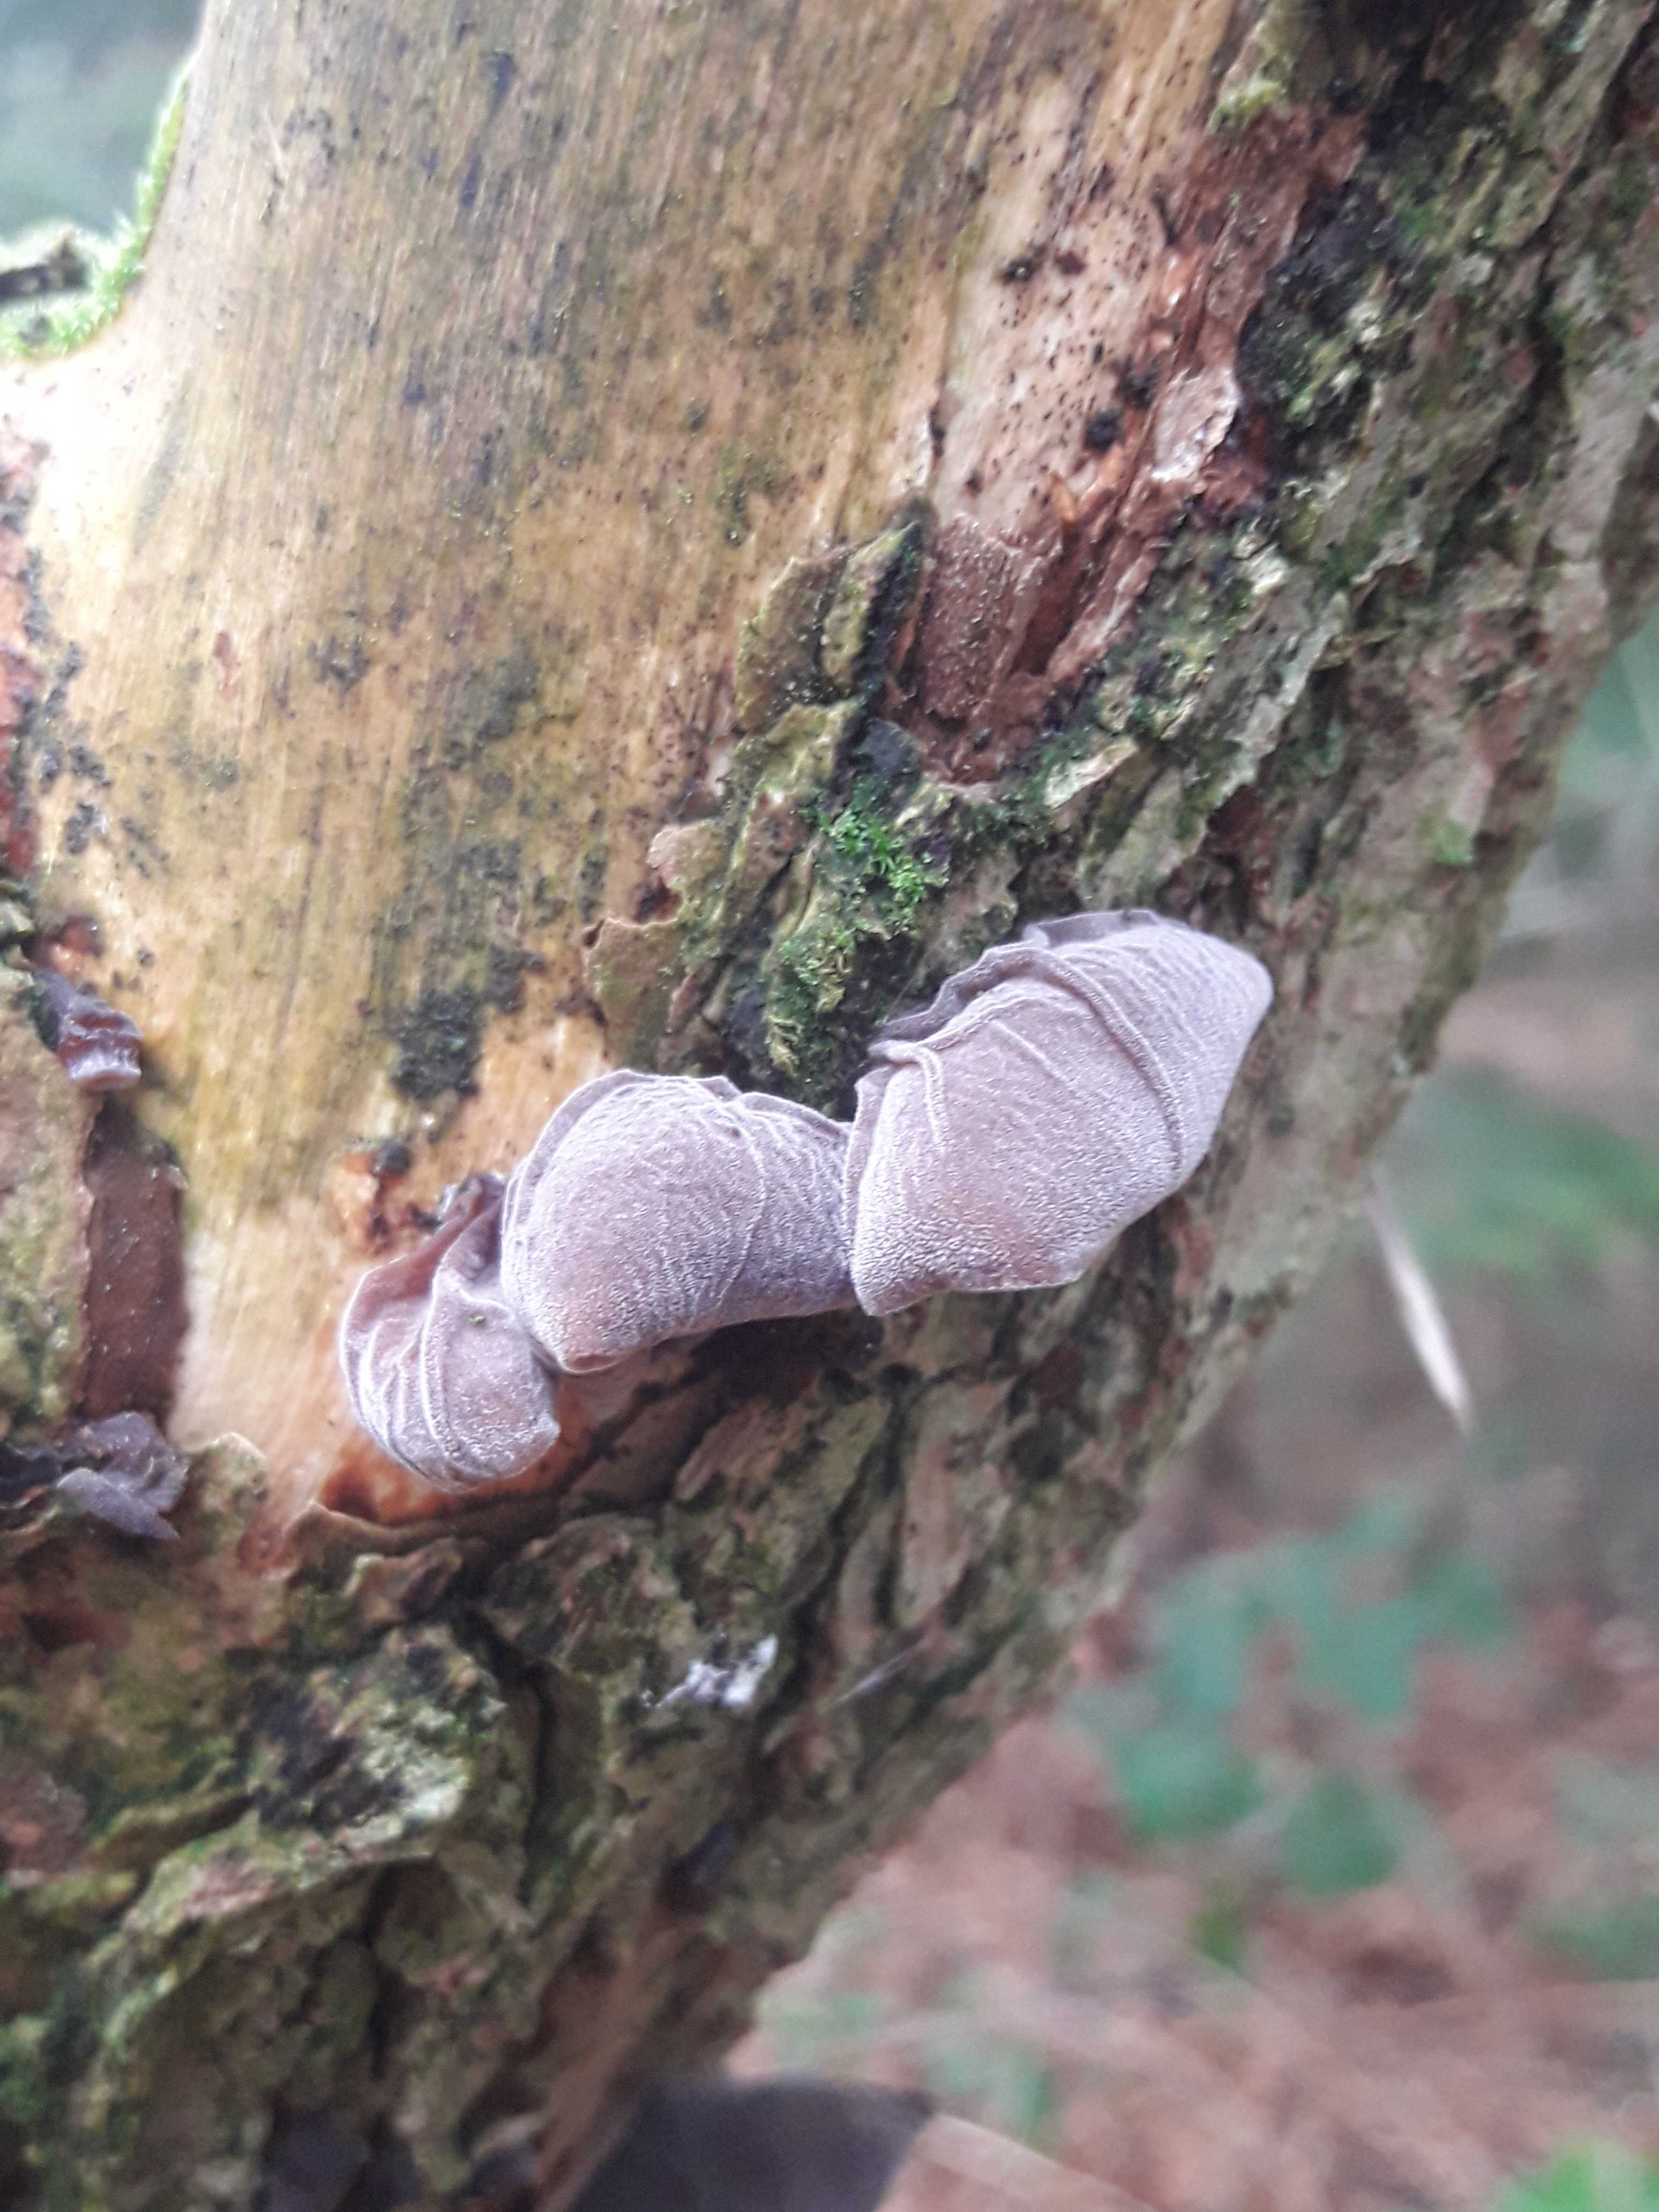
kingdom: Fungi
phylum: Basidiomycota
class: Agaricomycetes
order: Auriculariales
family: Auriculariaceae
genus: Auricularia
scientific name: Auricularia auricula-judae
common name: almindelig judasøre
